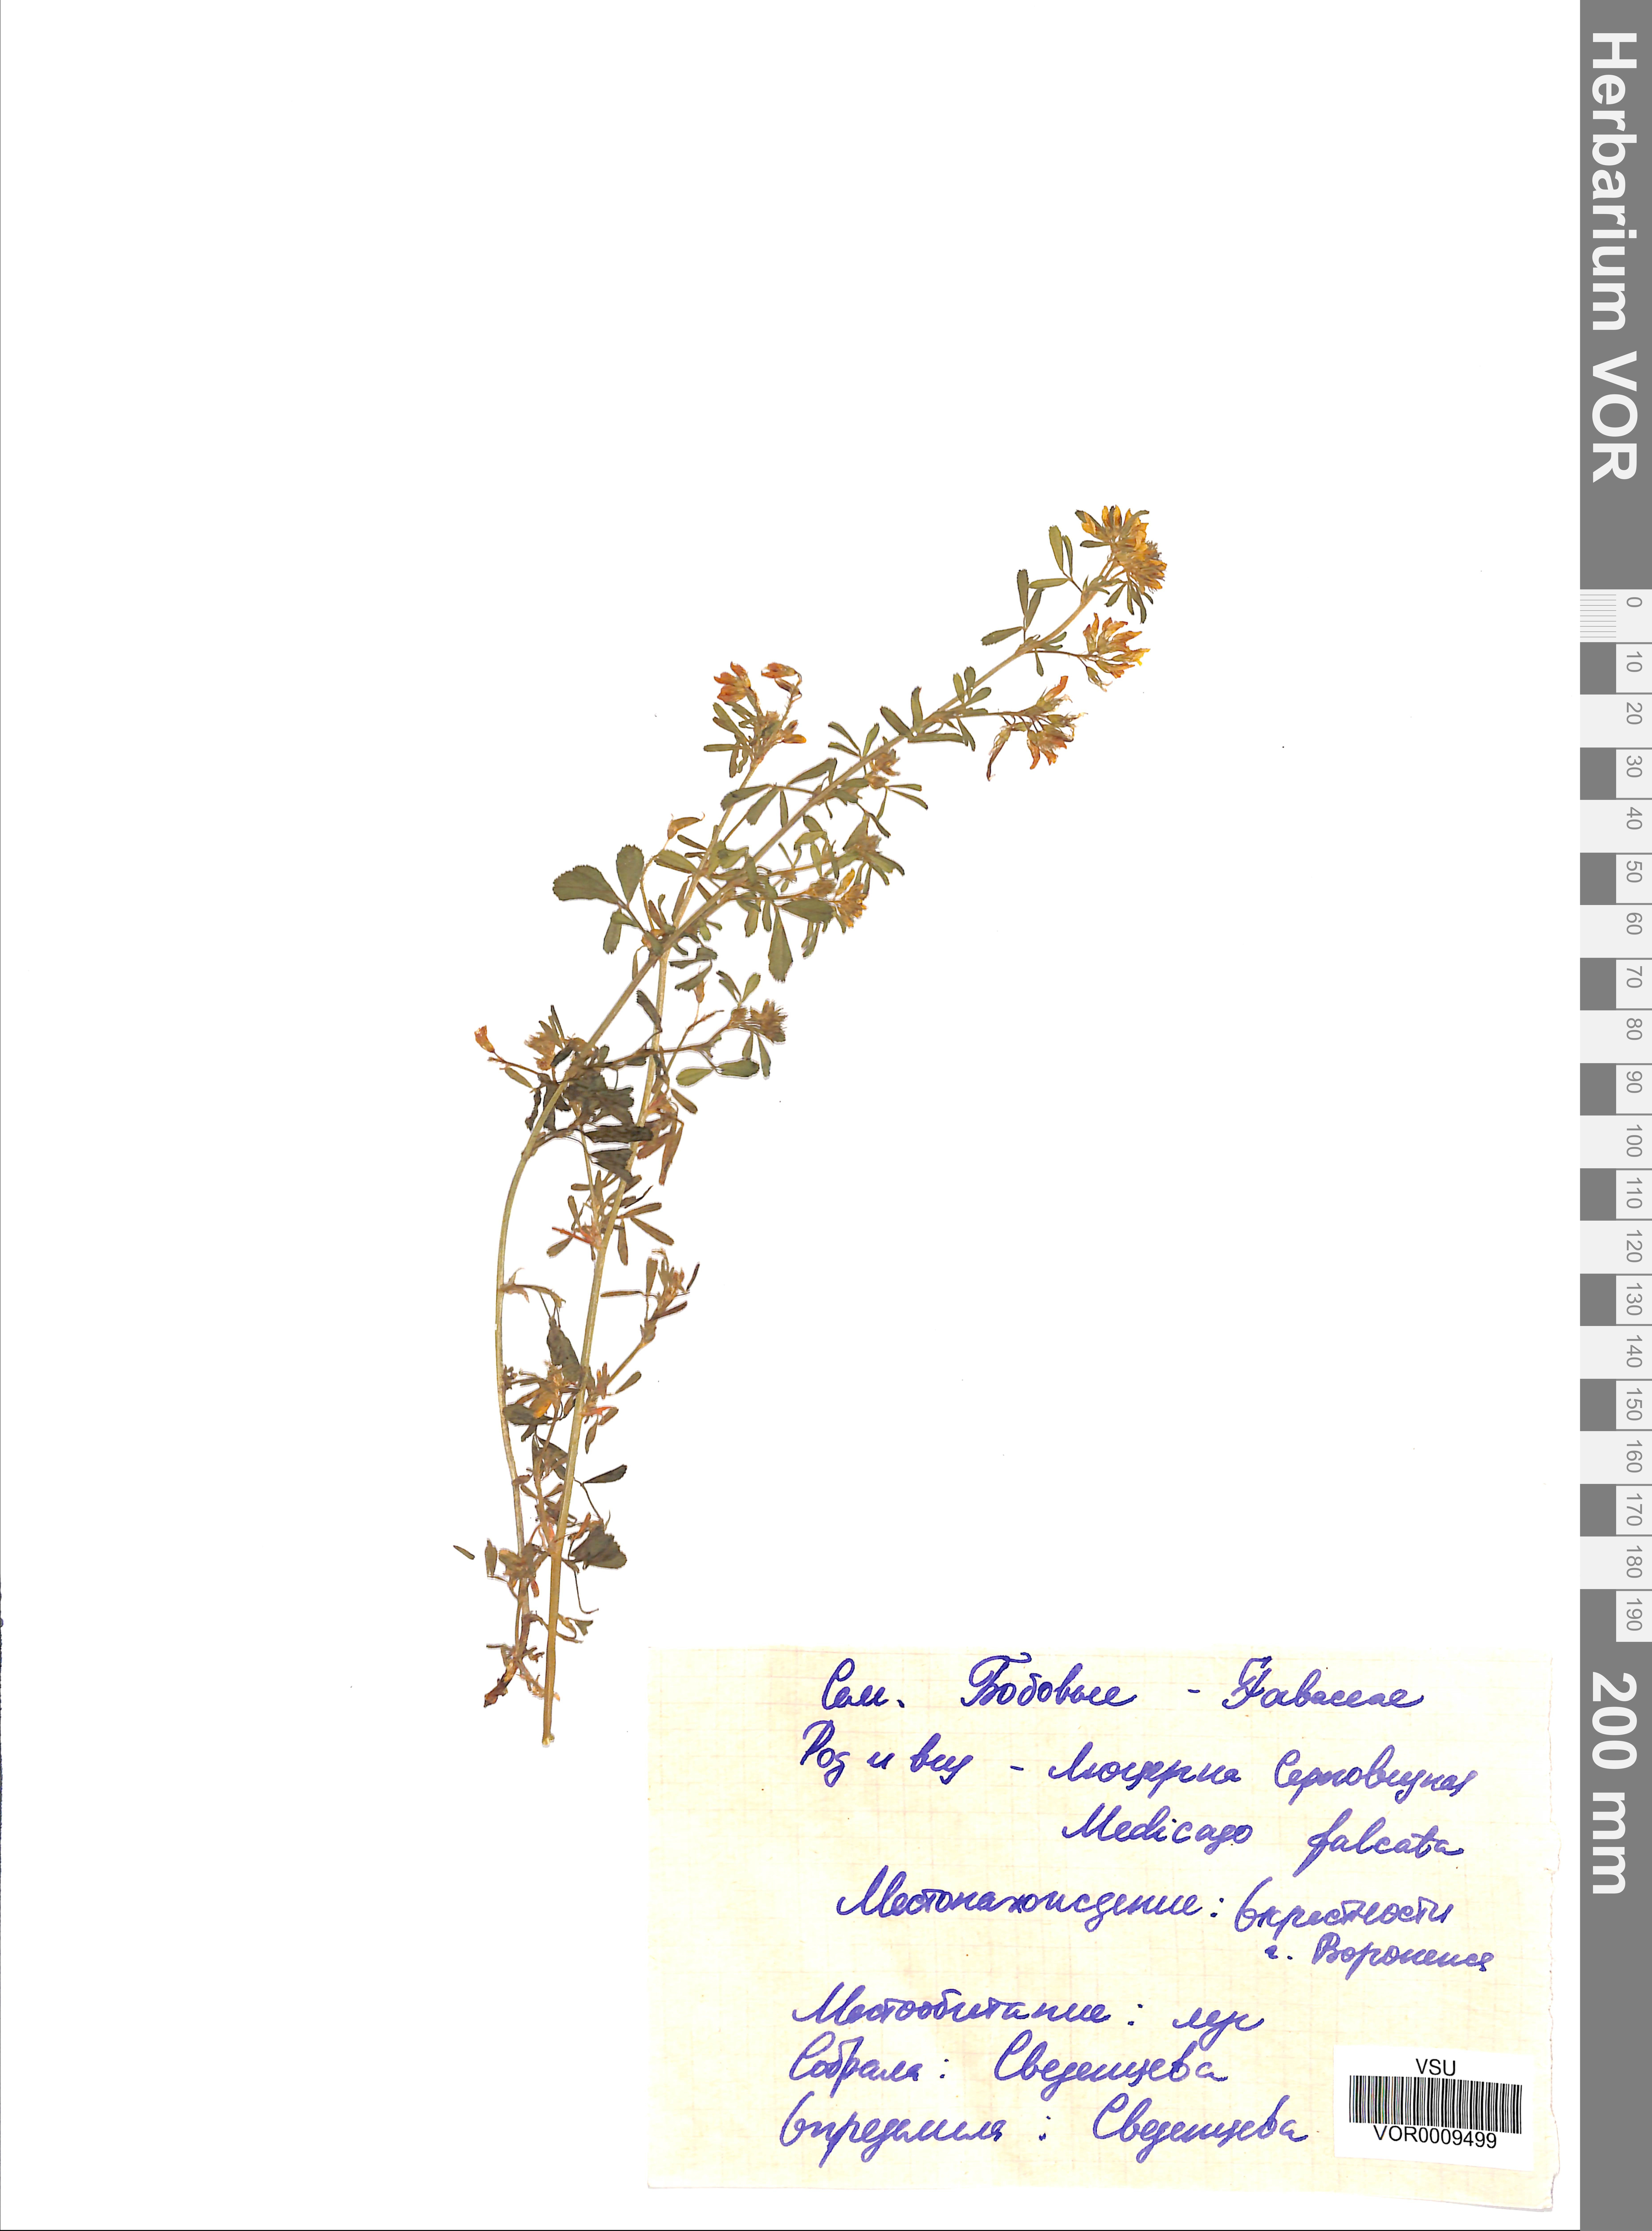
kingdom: Plantae
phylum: Tracheophyta
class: Magnoliopsida
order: Fabales
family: Fabaceae
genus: Medicago
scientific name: Medicago falcata
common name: Sickle medick
